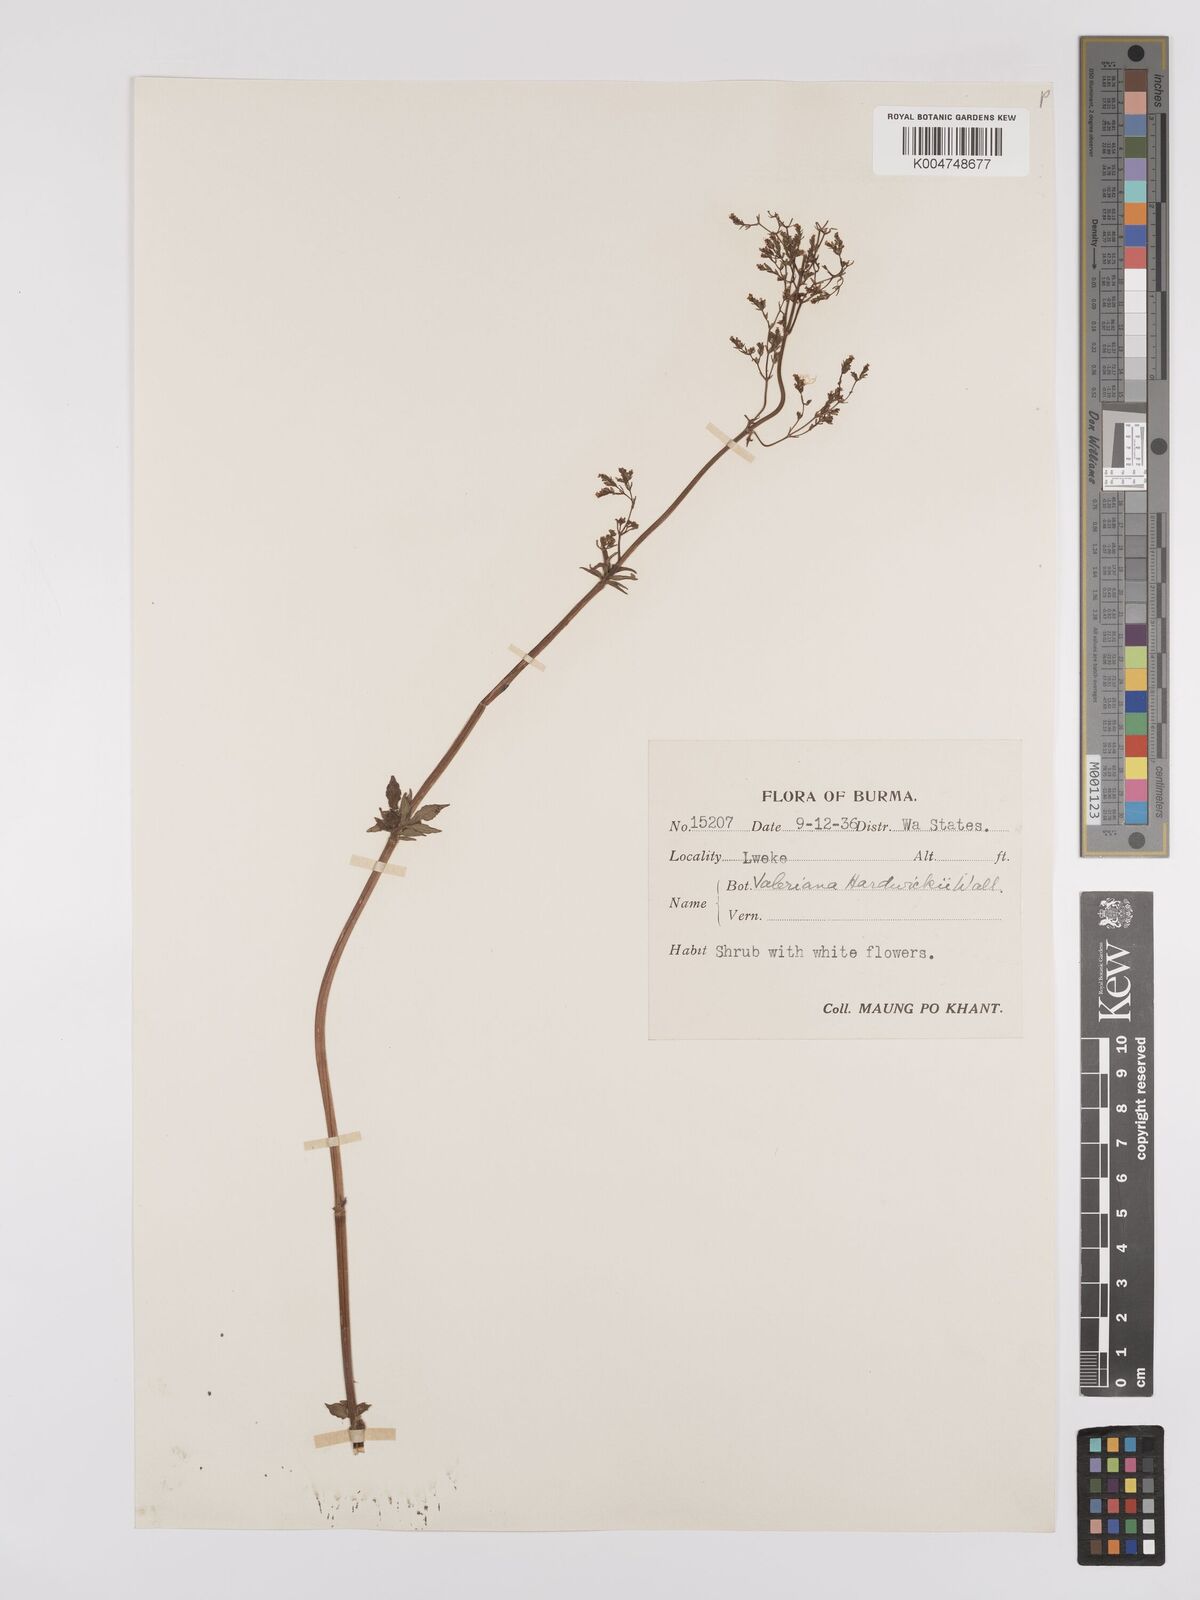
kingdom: Plantae
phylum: Tracheophyta
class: Magnoliopsida
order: Dipsacales
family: Caprifoliaceae
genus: Valeriana
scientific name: Valeriana hardwickei
